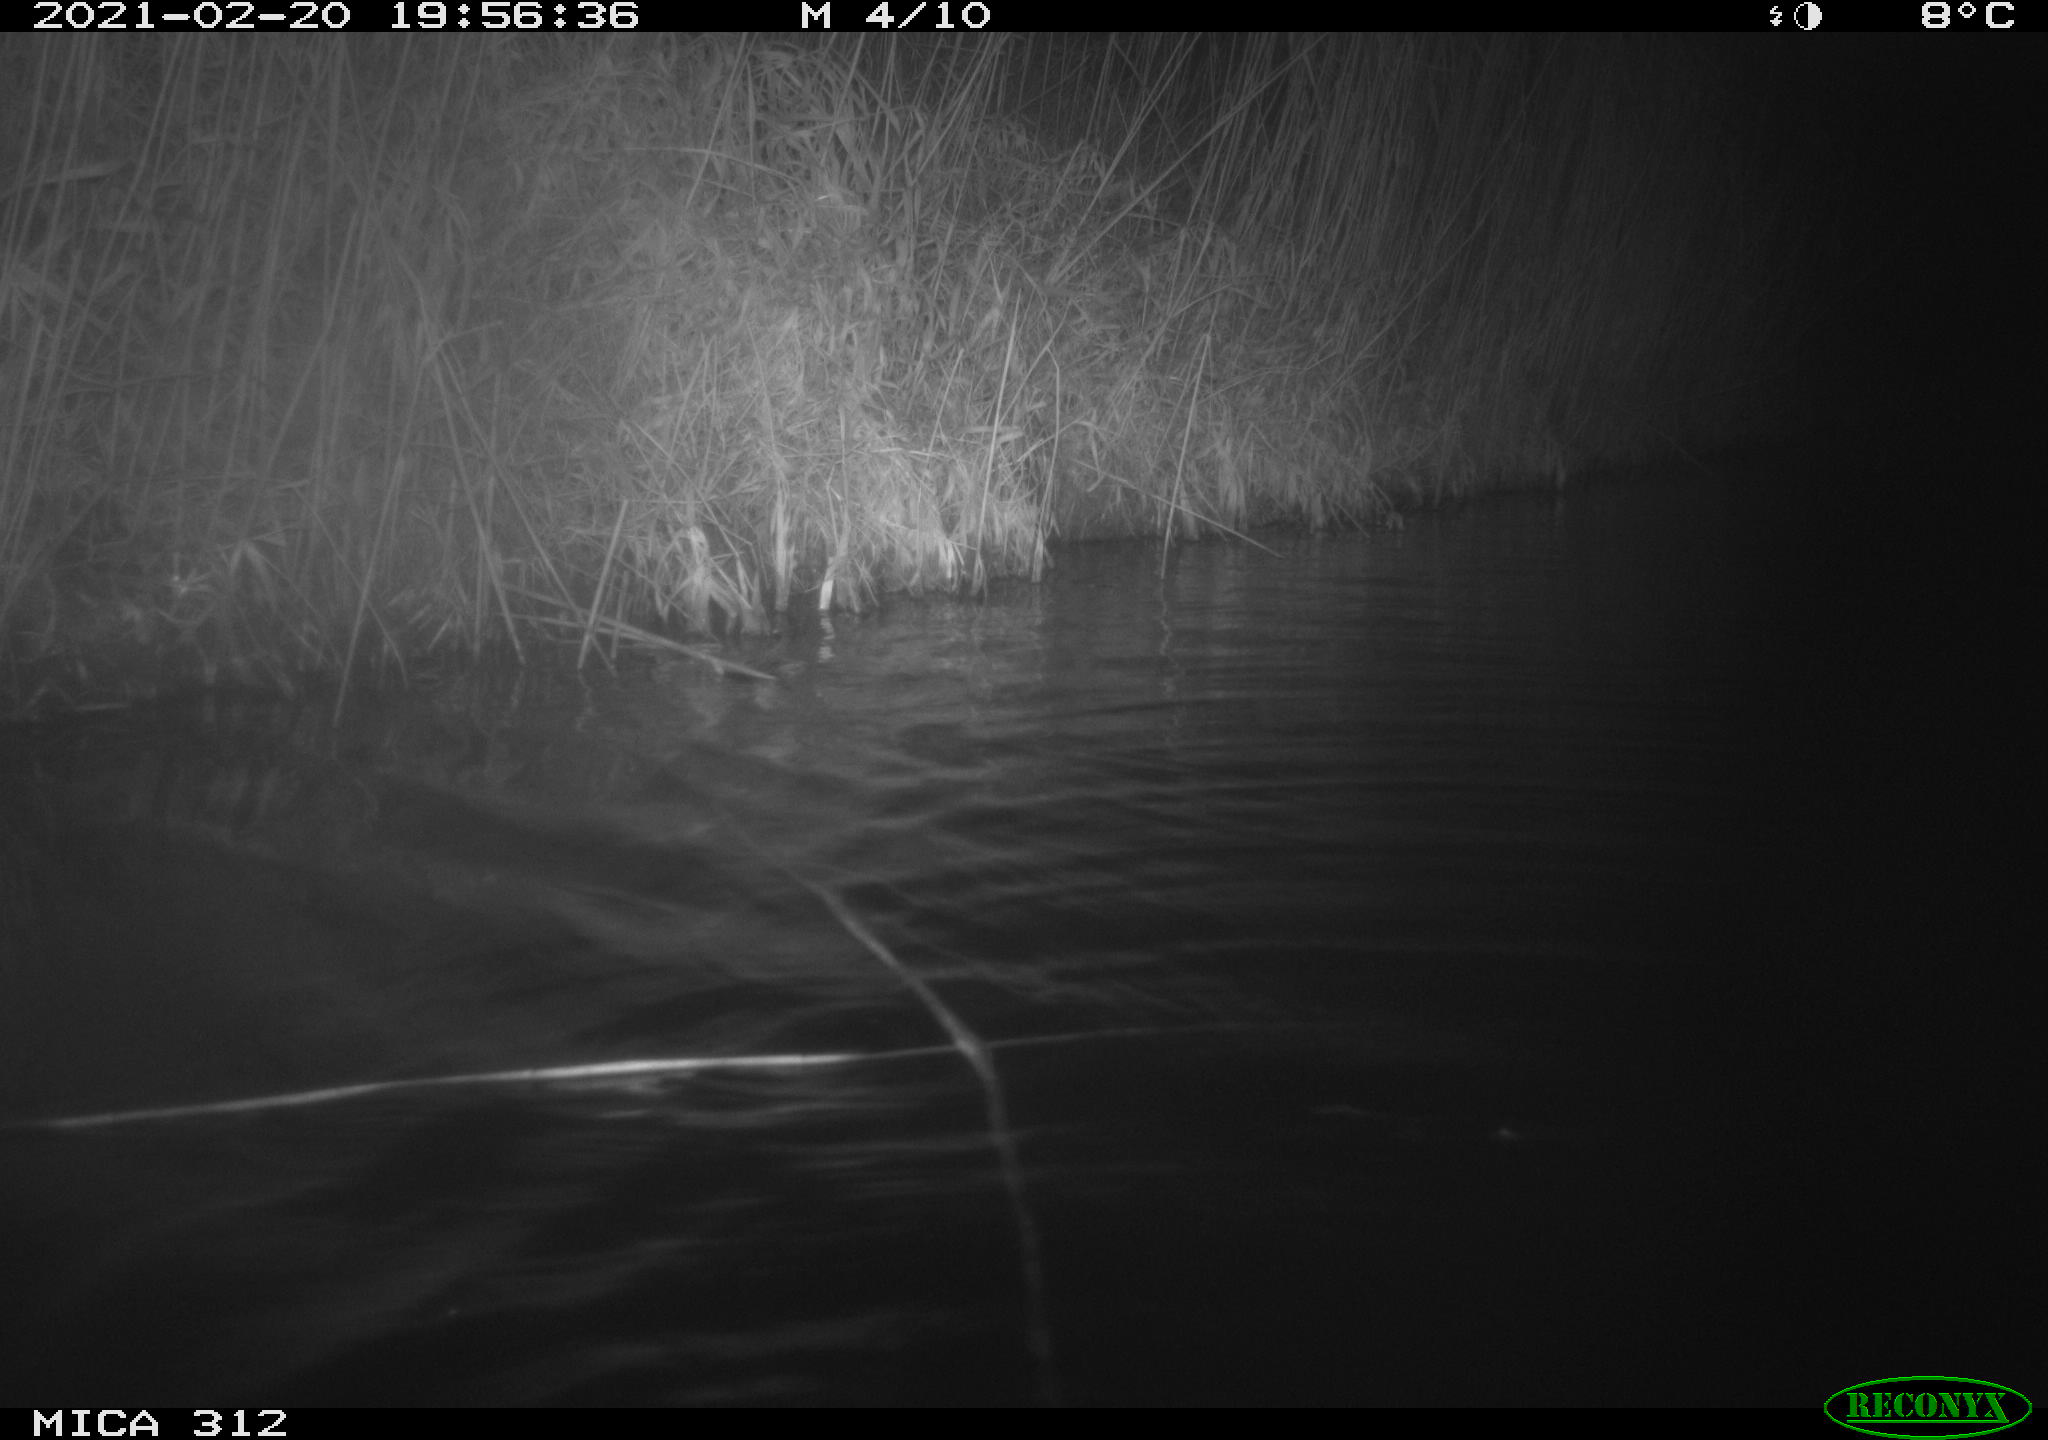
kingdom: Animalia
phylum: Chordata
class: Mammalia
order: Rodentia
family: Cricetidae
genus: Ondatra
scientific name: Ondatra zibethicus
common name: Muskrat
